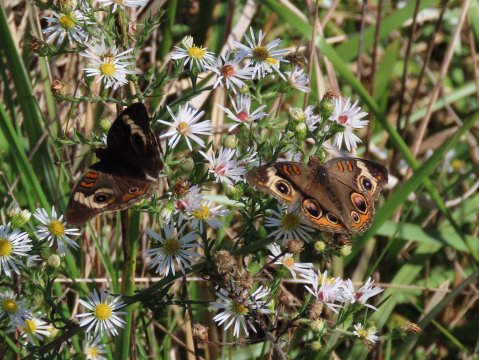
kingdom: Animalia
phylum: Arthropoda
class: Insecta
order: Lepidoptera
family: Nymphalidae
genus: Junonia
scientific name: Junonia coenia
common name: Common Buckeye
